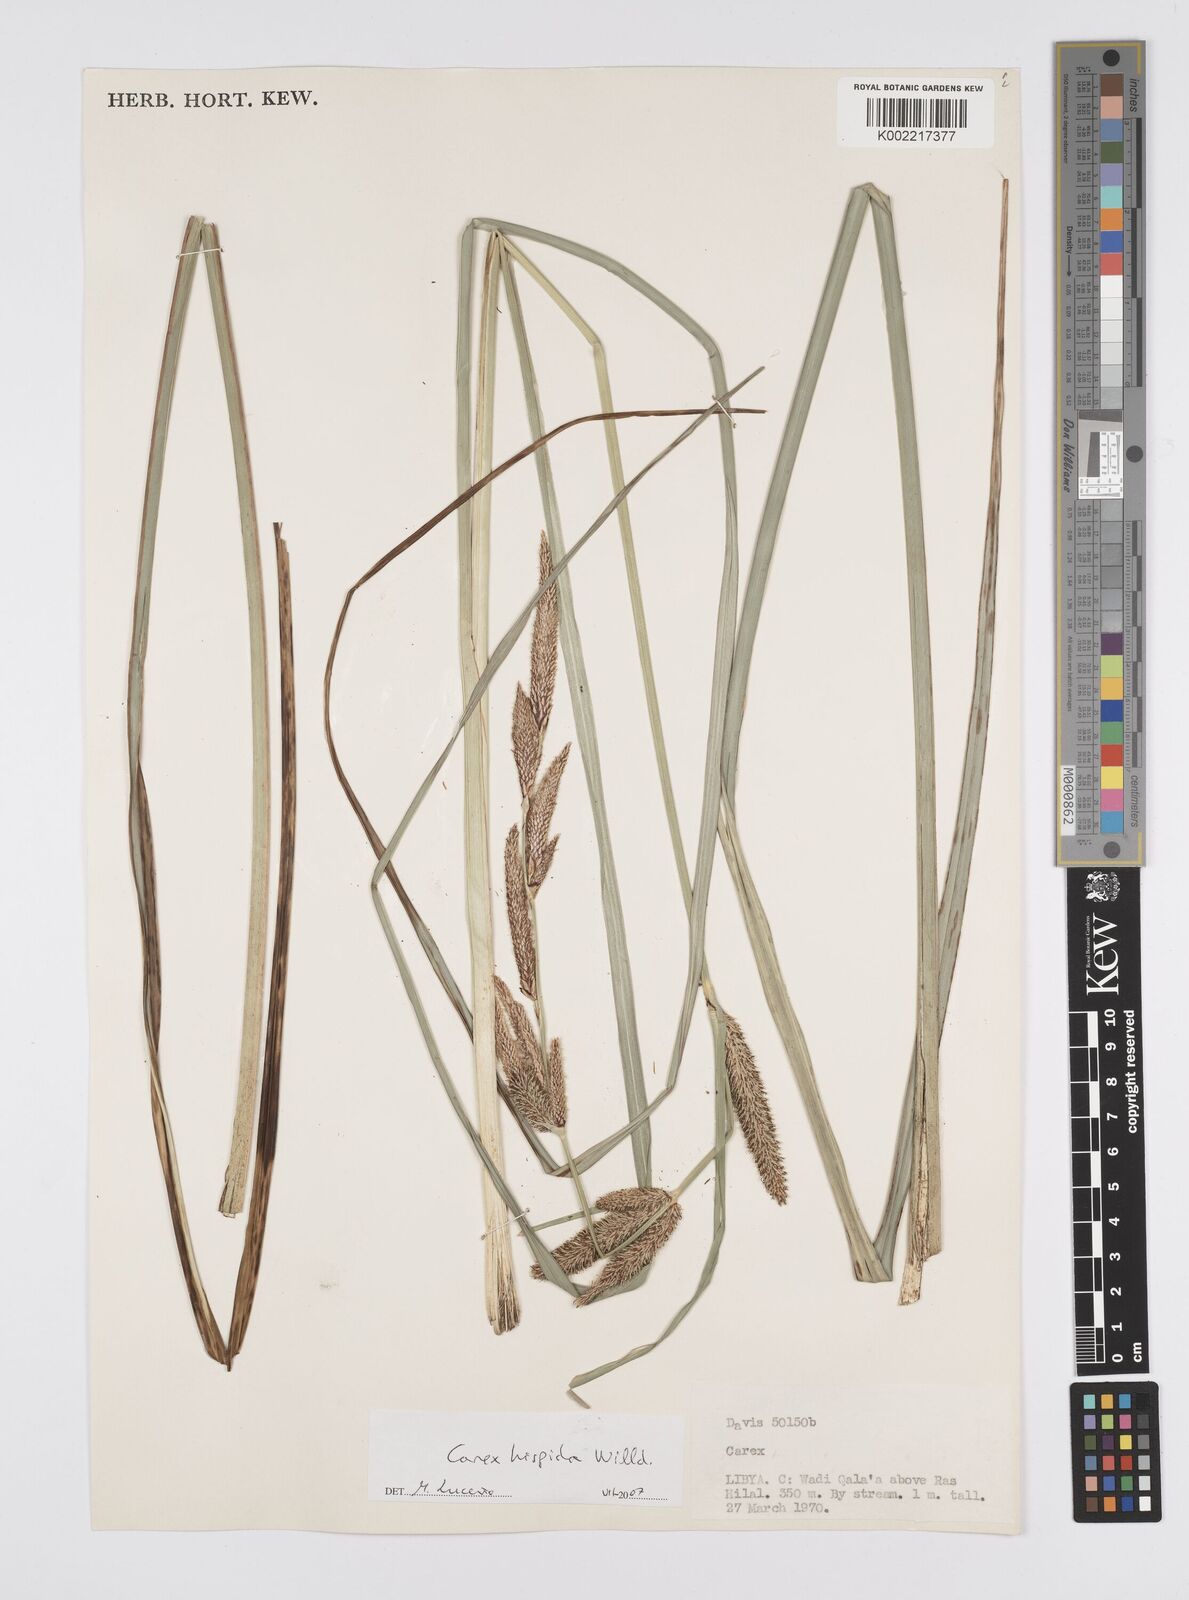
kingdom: Plantae
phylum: Tracheophyta
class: Liliopsida
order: Poales
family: Cyperaceae
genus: Carex
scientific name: Carex hispida
